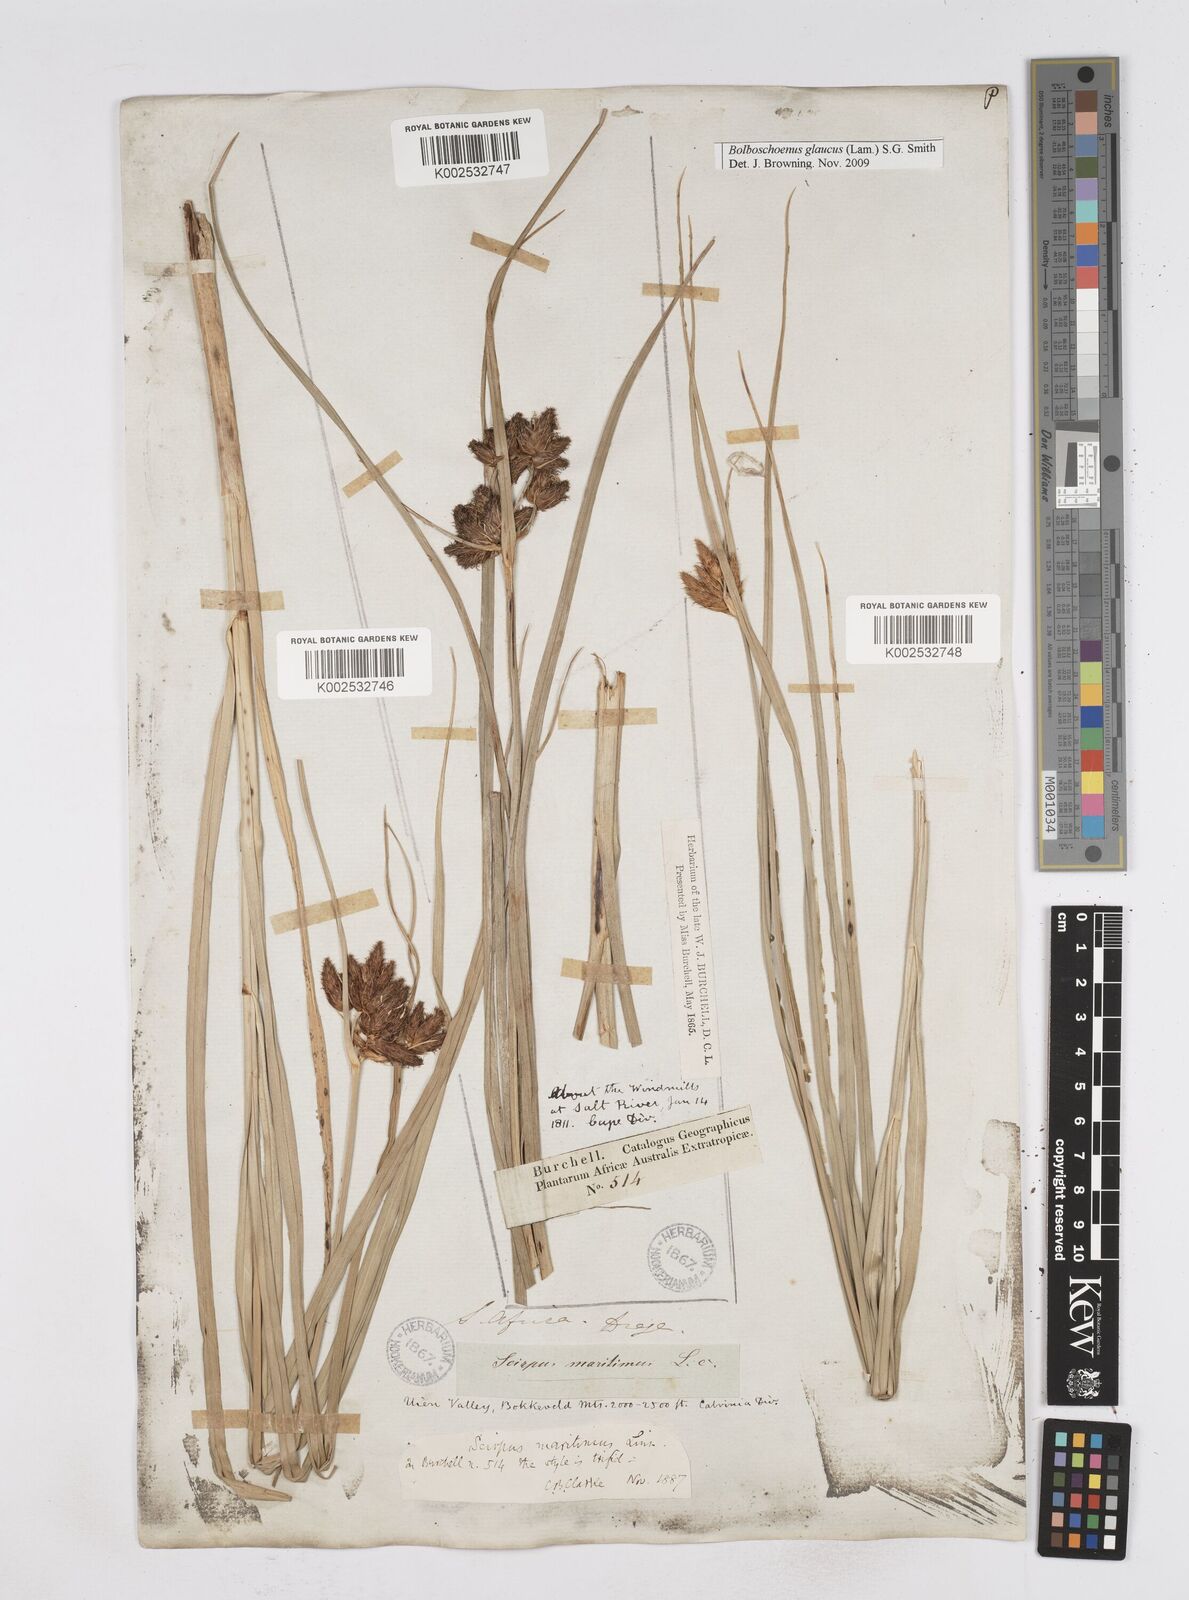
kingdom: Plantae
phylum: Tracheophyta
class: Liliopsida
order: Poales
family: Cyperaceae
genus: Bolboschoenus
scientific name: Bolboschoenus maritimus
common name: Sea club-rush
